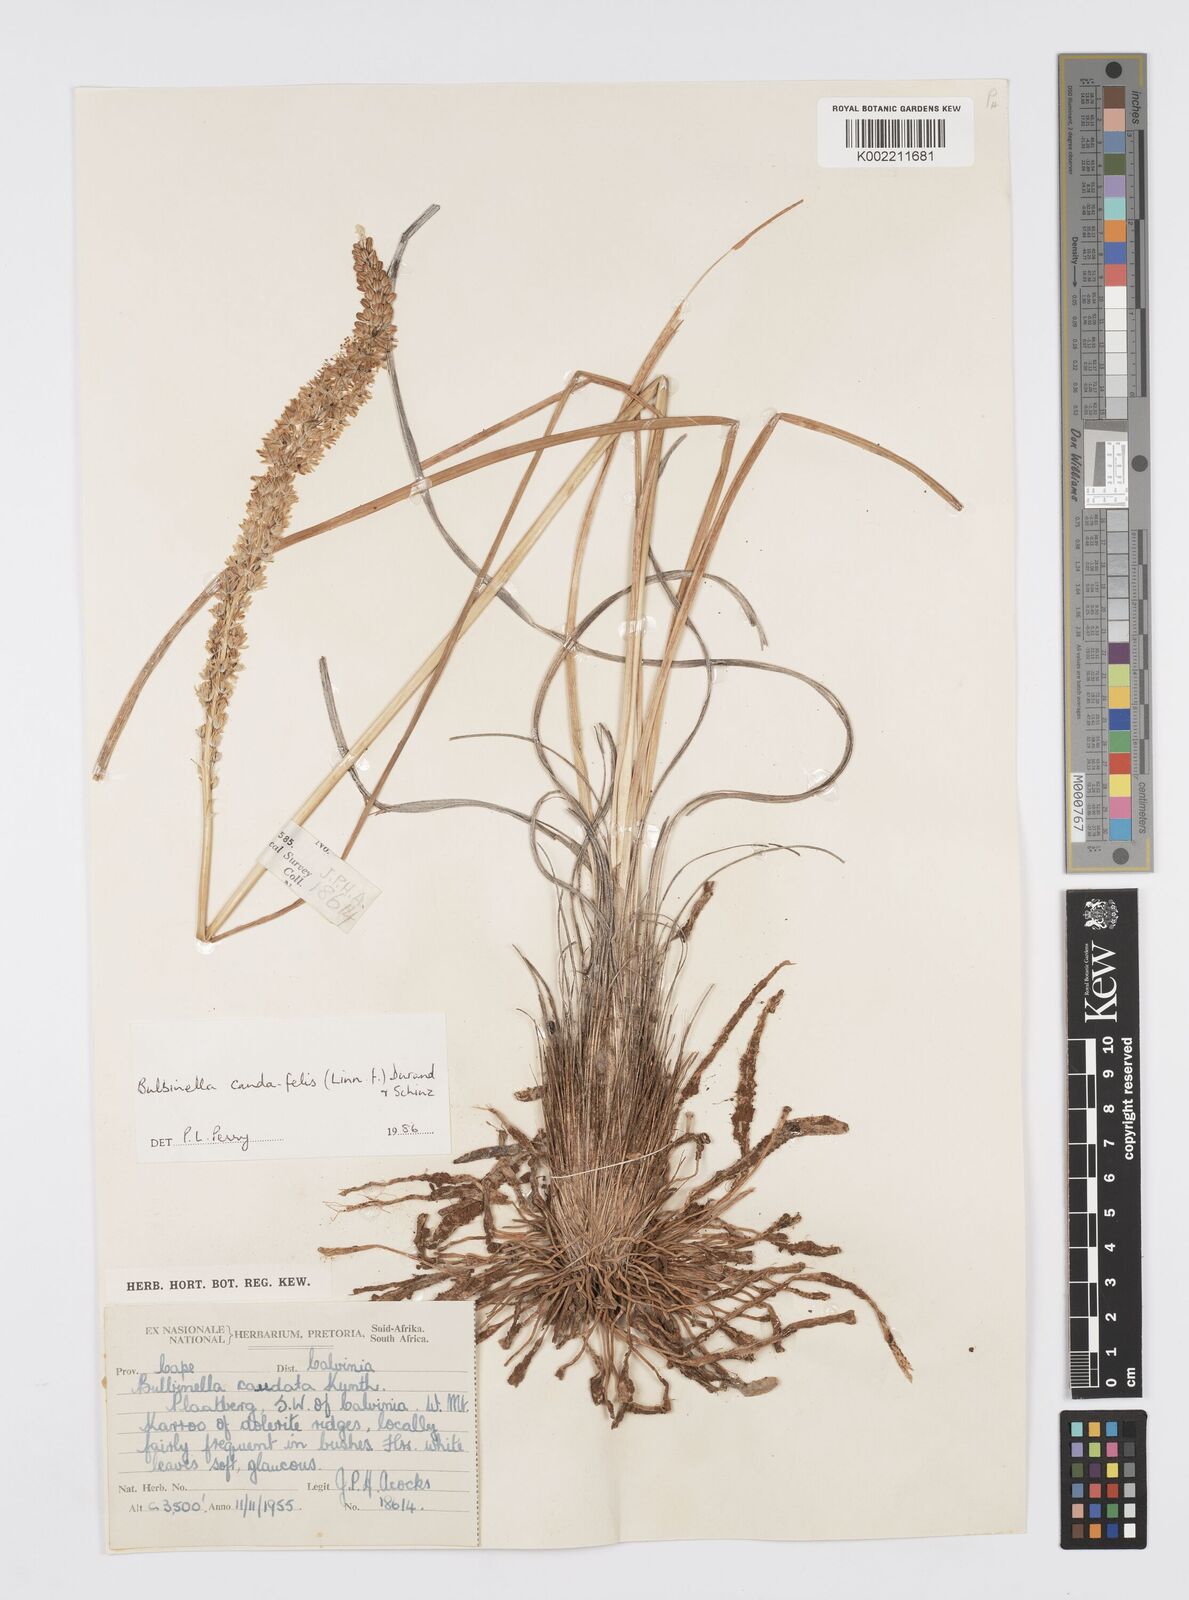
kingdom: Plantae
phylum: Tracheophyta
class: Liliopsida
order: Asparagales
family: Asphodelaceae
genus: Bulbinella
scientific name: Bulbinella cauda-felis
